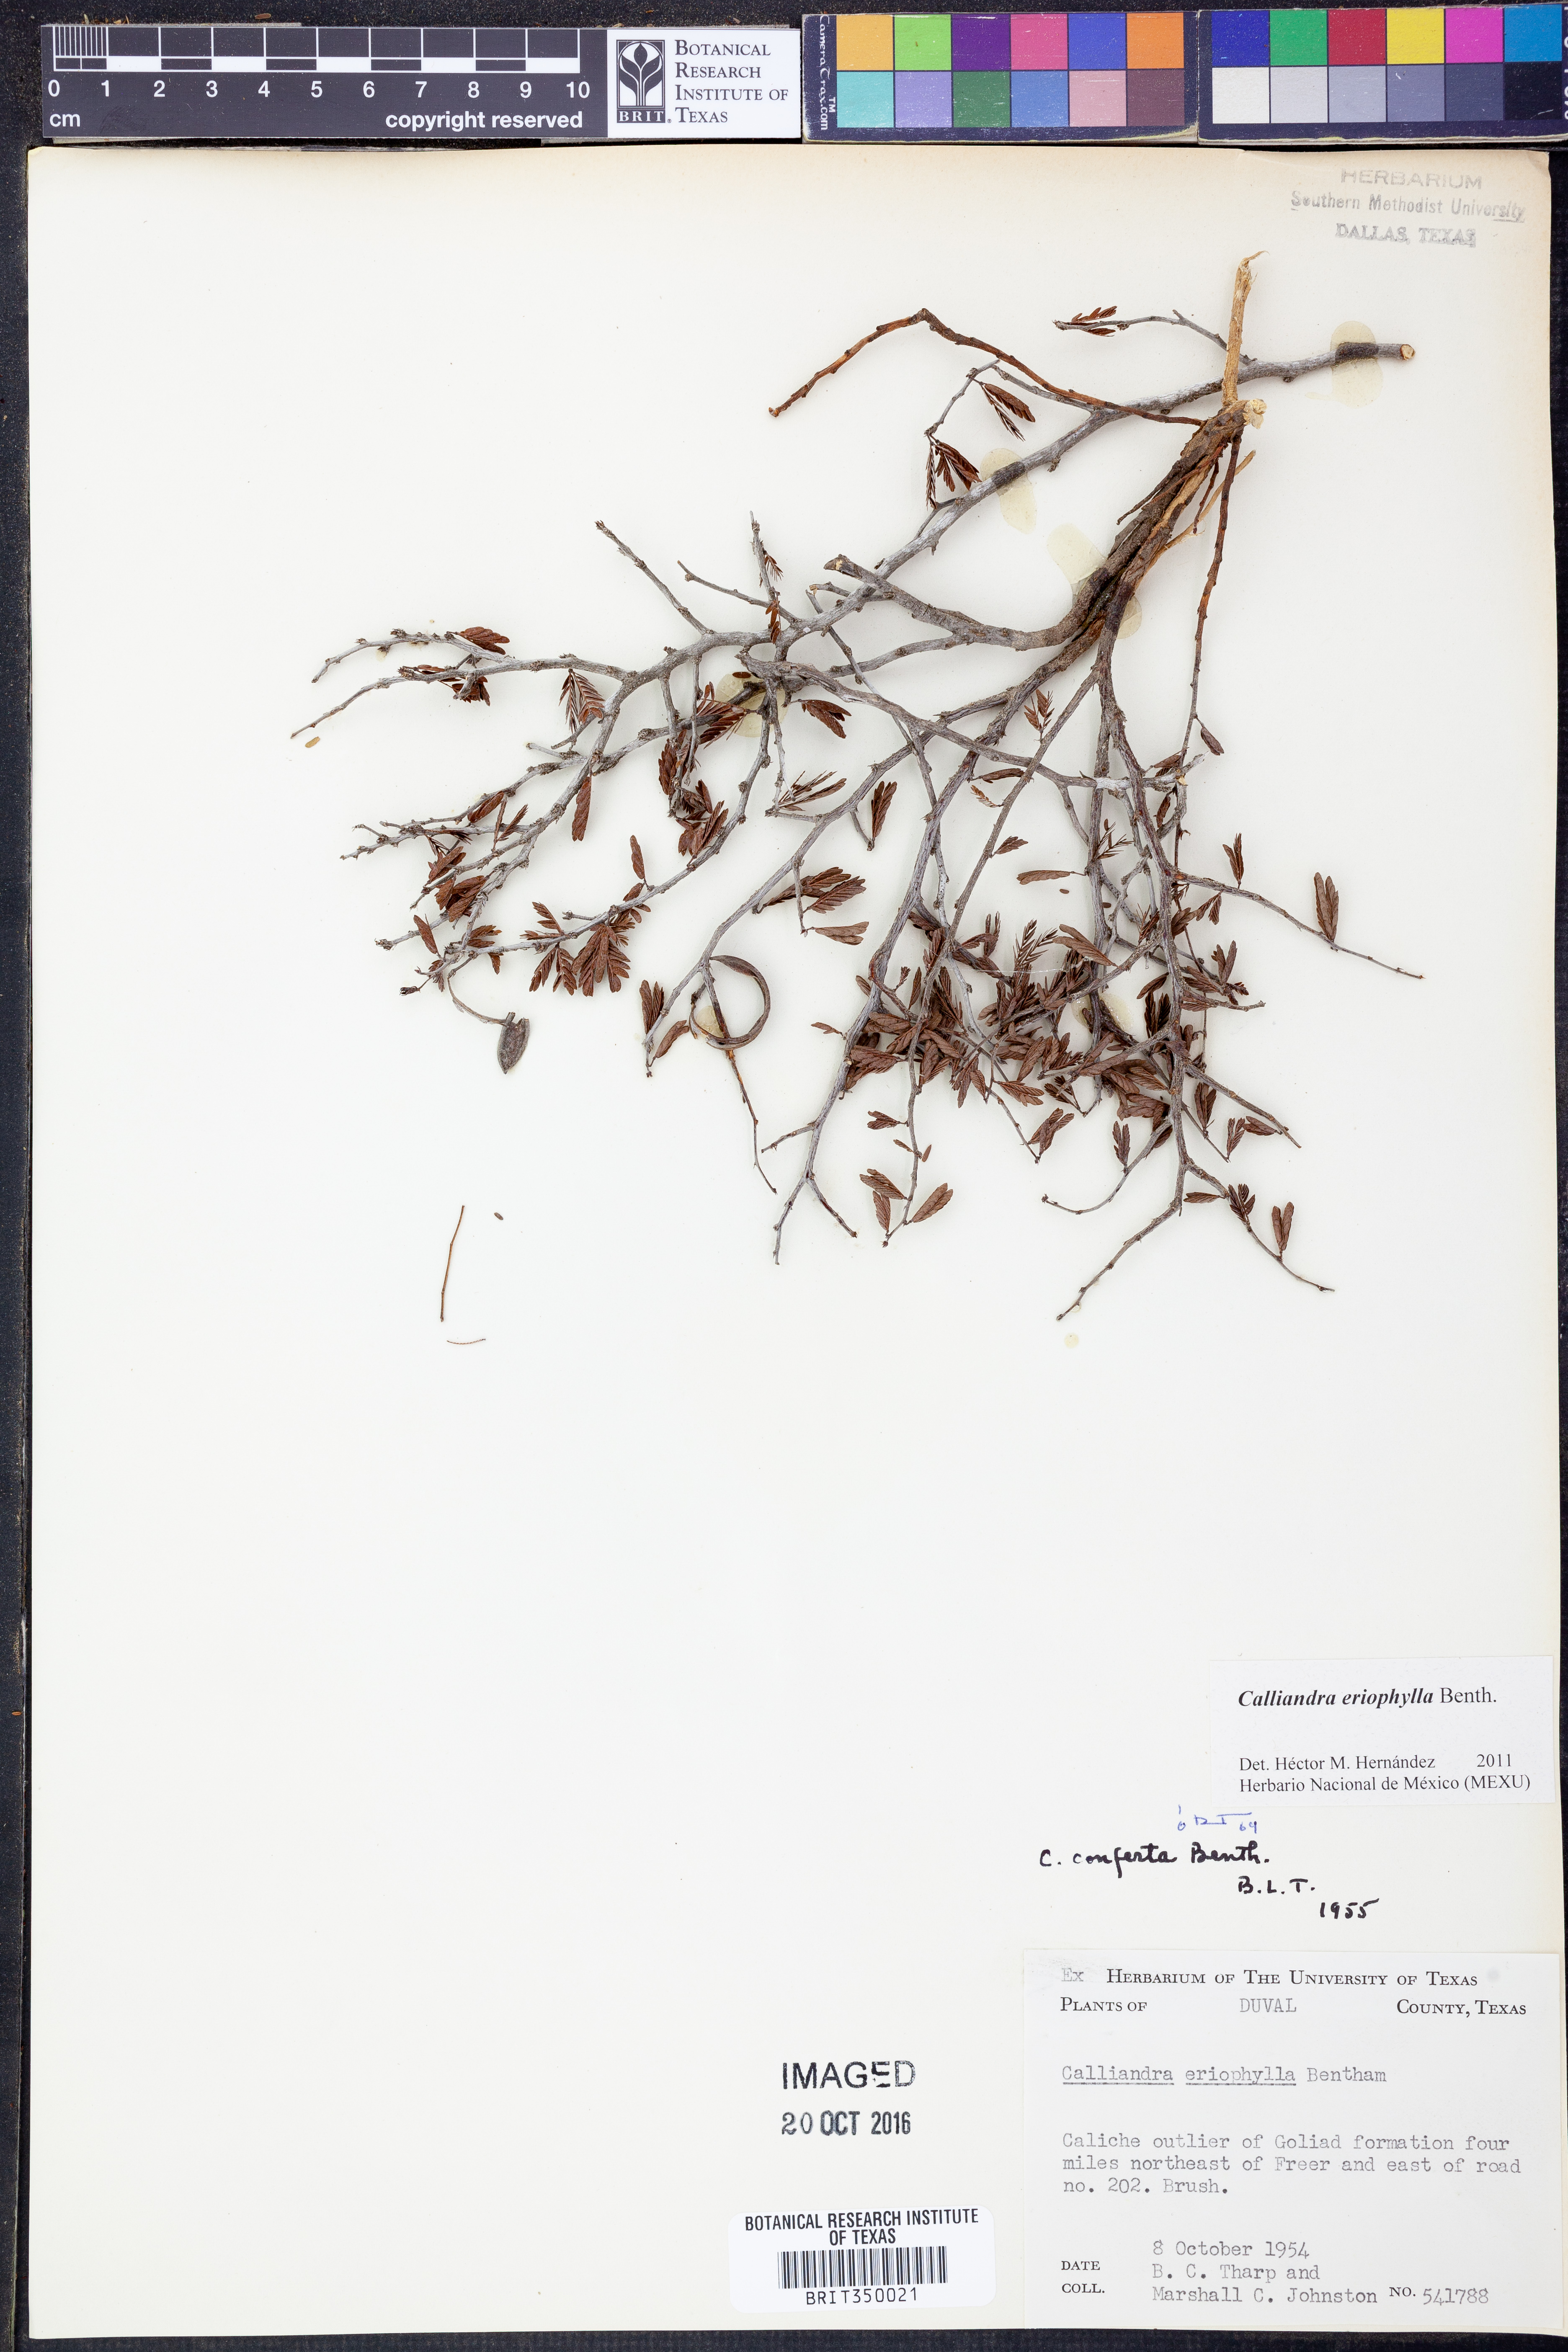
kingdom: Plantae
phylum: Tracheophyta
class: Magnoliopsida
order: Fabales
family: Fabaceae
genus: Calliandra
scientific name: Calliandra eriophylla
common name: Fairy-duster
